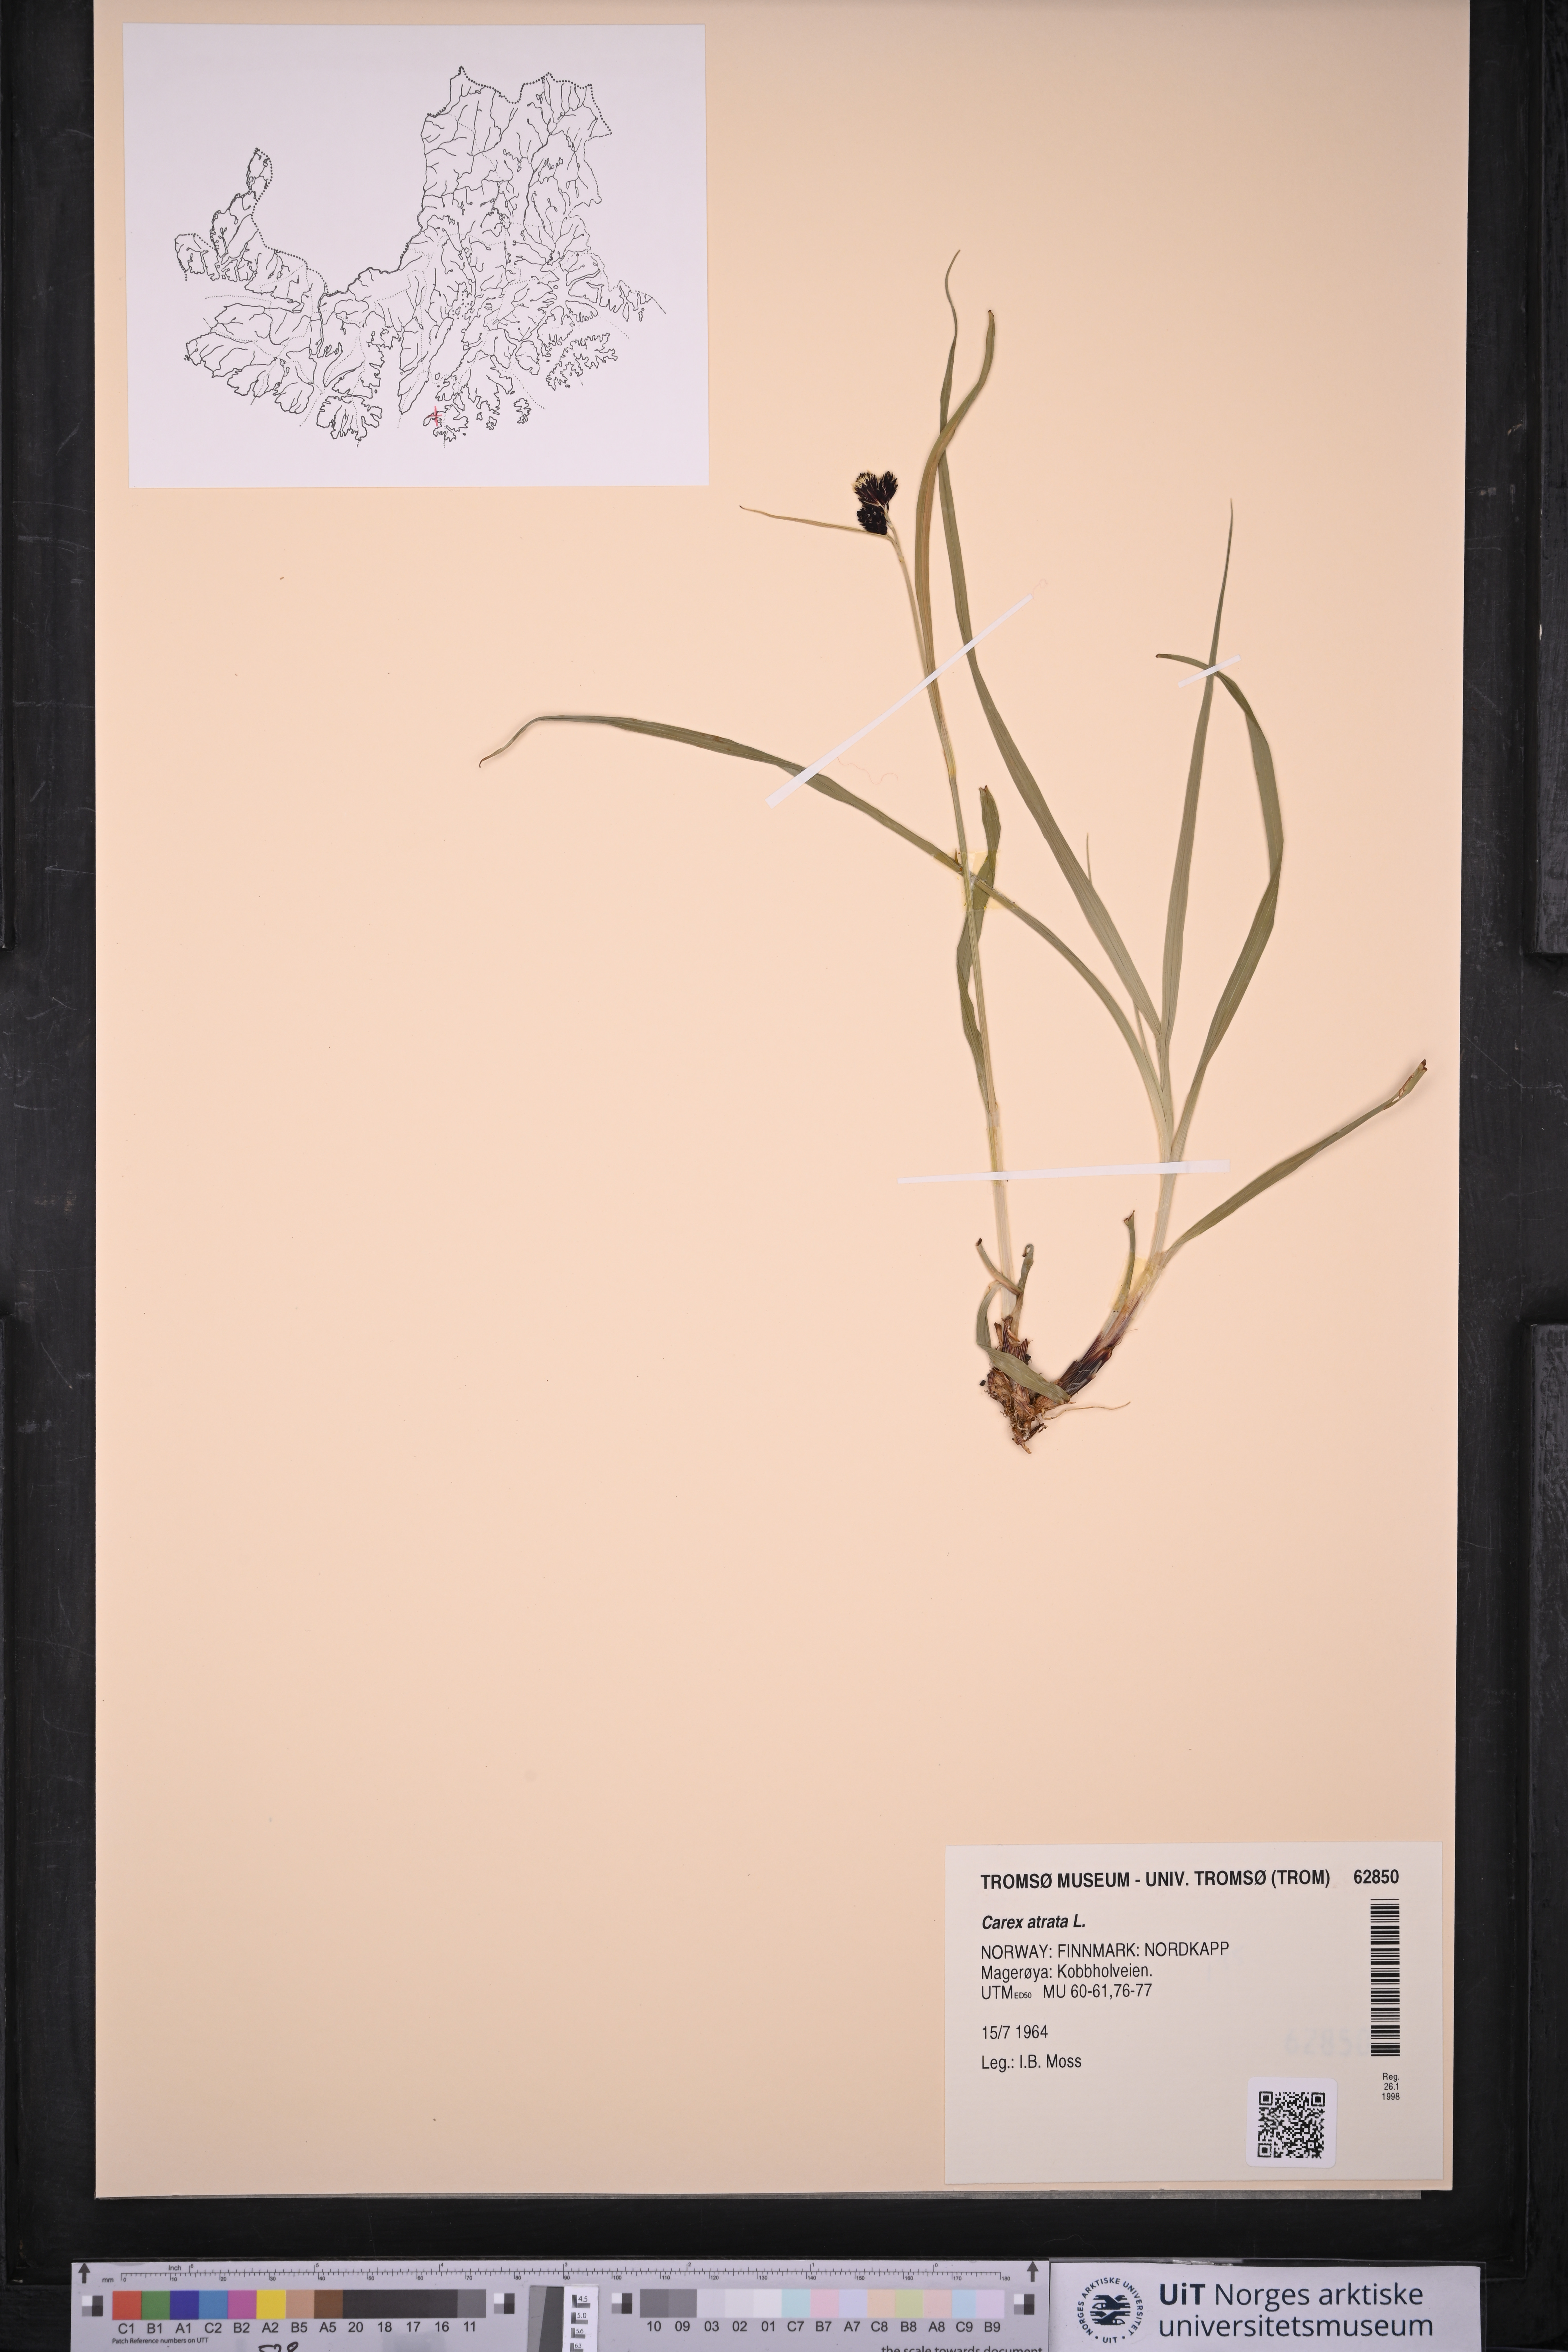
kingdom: Plantae
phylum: Tracheophyta
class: Liliopsida
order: Poales
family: Cyperaceae
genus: Carex
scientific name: Carex atrata
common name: Black alpine sedge
